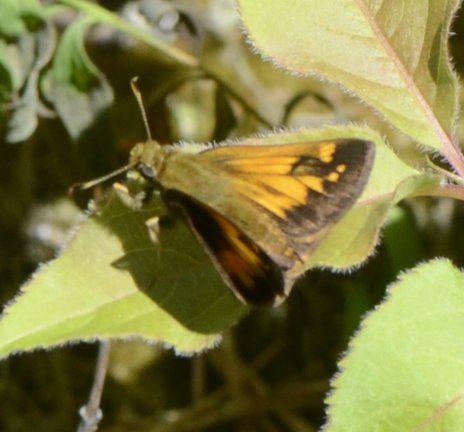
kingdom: Animalia
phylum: Arthropoda
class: Insecta
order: Lepidoptera
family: Hesperiidae
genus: Lon
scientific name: Lon hobomok
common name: Hobomok Skipper
